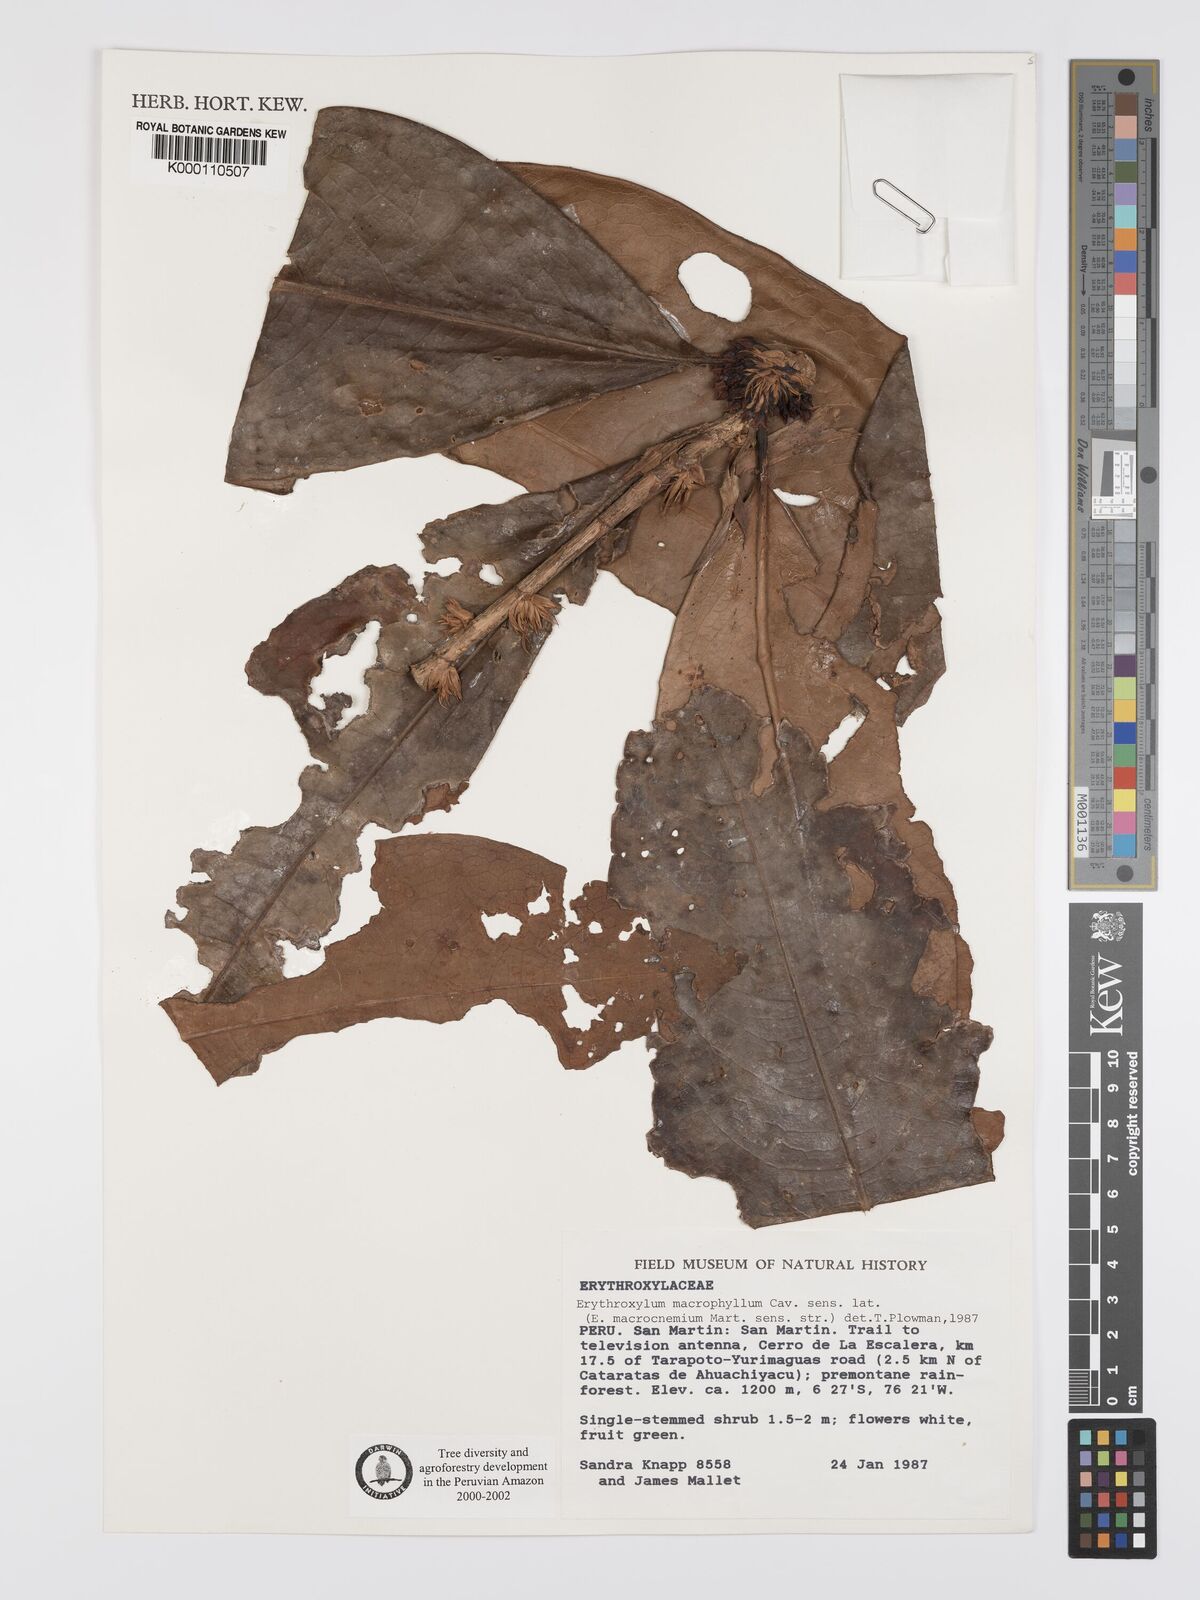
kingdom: Plantae
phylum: Tracheophyta
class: Magnoliopsida
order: Malpighiales
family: Erythroxylaceae
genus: Erythroxylum
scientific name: Erythroxylum
